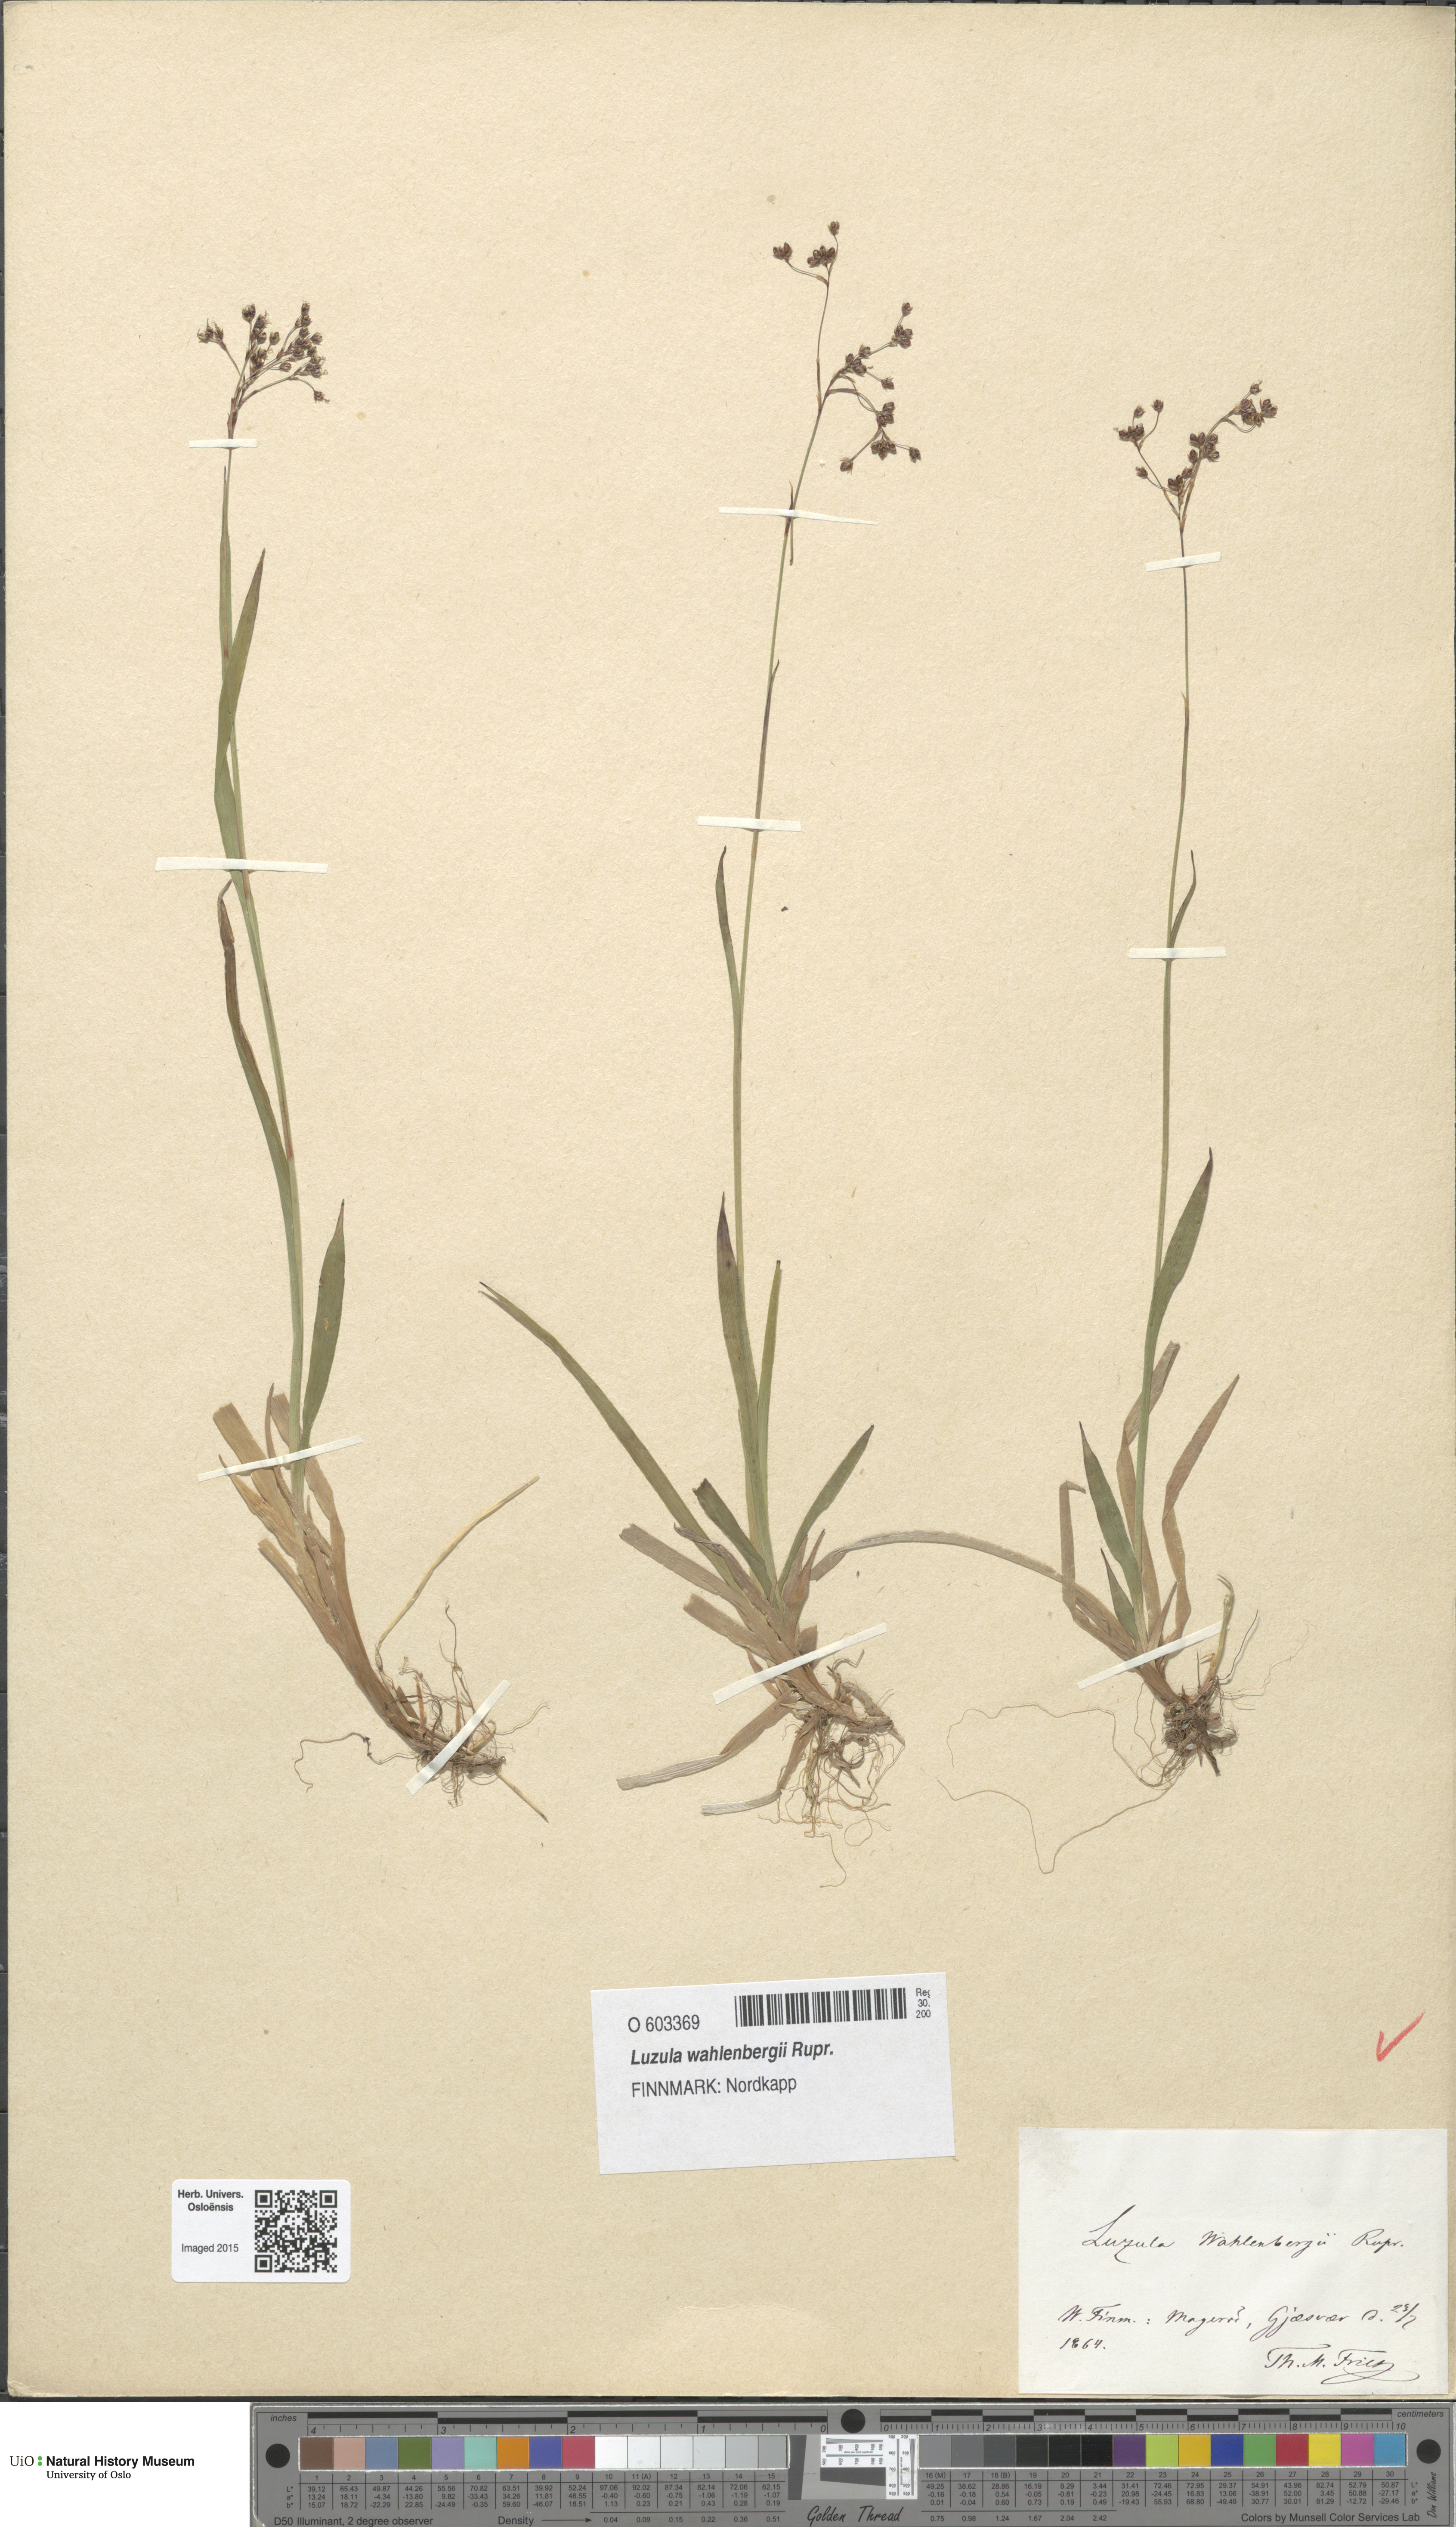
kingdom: Plantae
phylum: Tracheophyta
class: Liliopsida
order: Poales
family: Juncaceae
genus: Luzula
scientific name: Luzula wahlenbergii
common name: Wahlenberg's wood-rush
